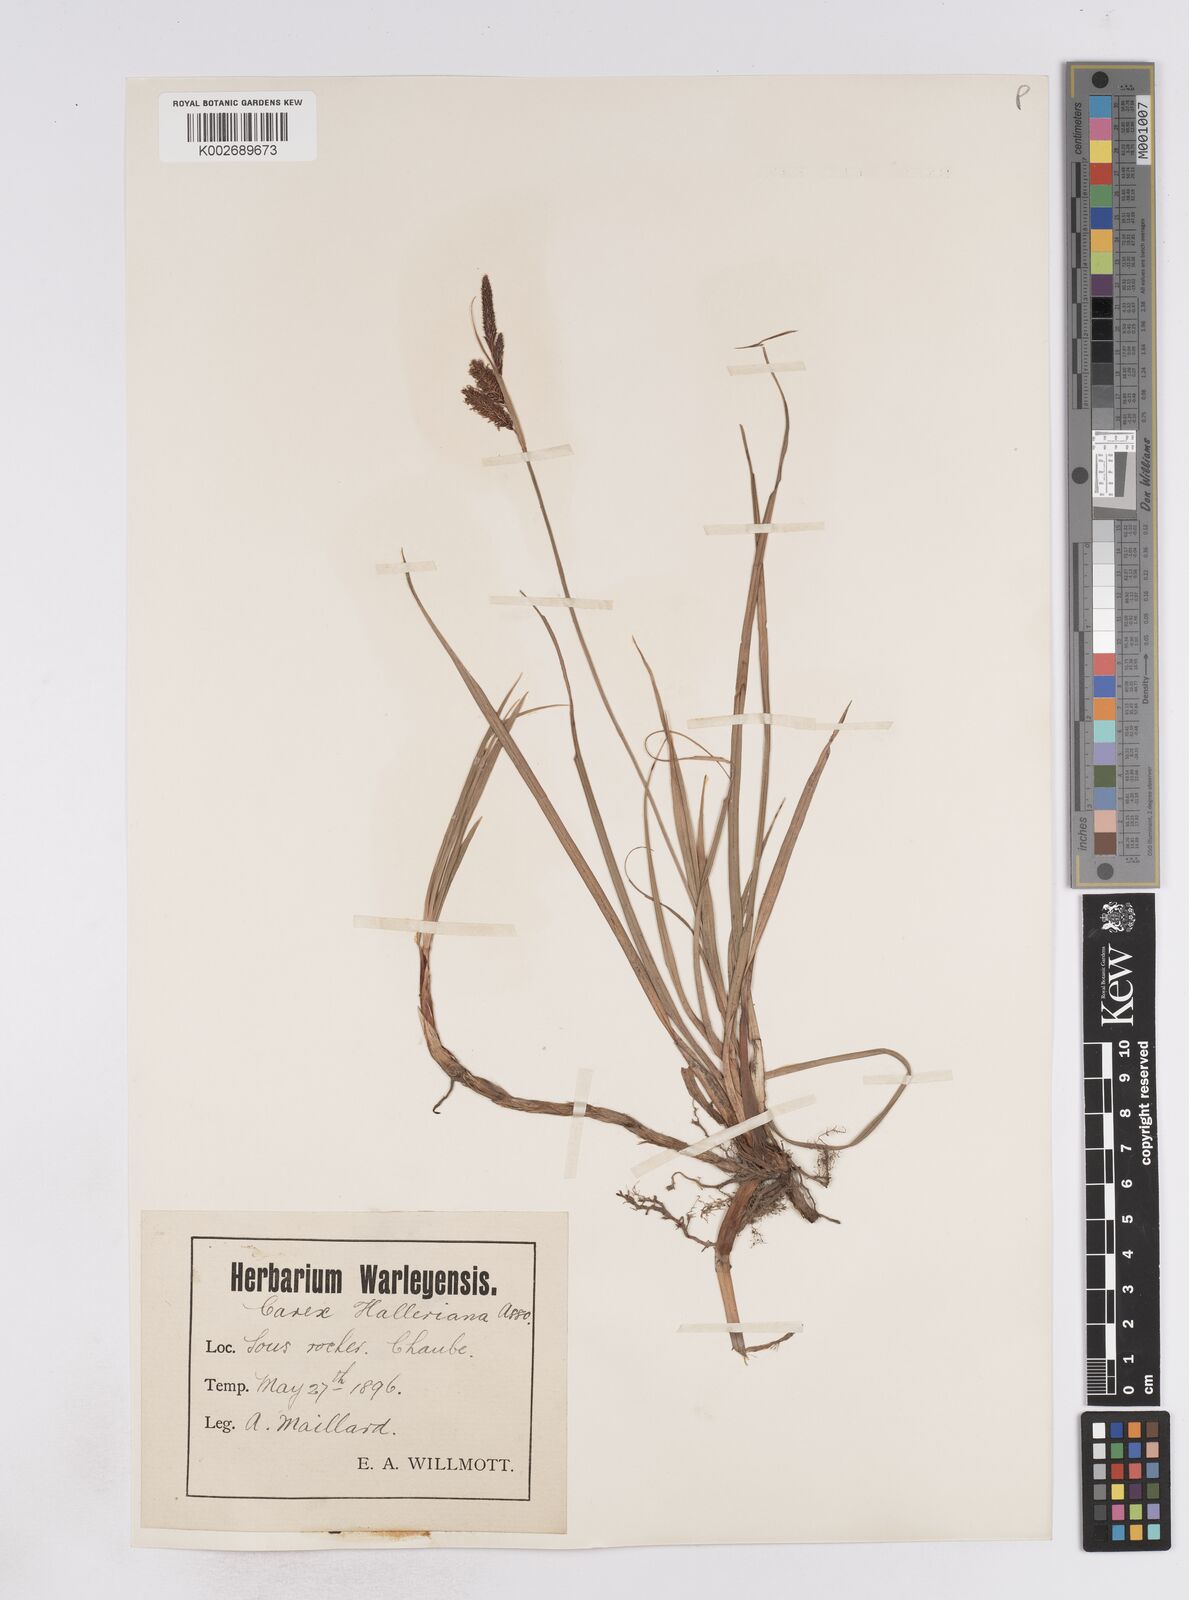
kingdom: Plantae
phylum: Tracheophyta
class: Liliopsida
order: Poales
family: Cyperaceae
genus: Carex
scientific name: Carex flacca
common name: Glaucous sedge
